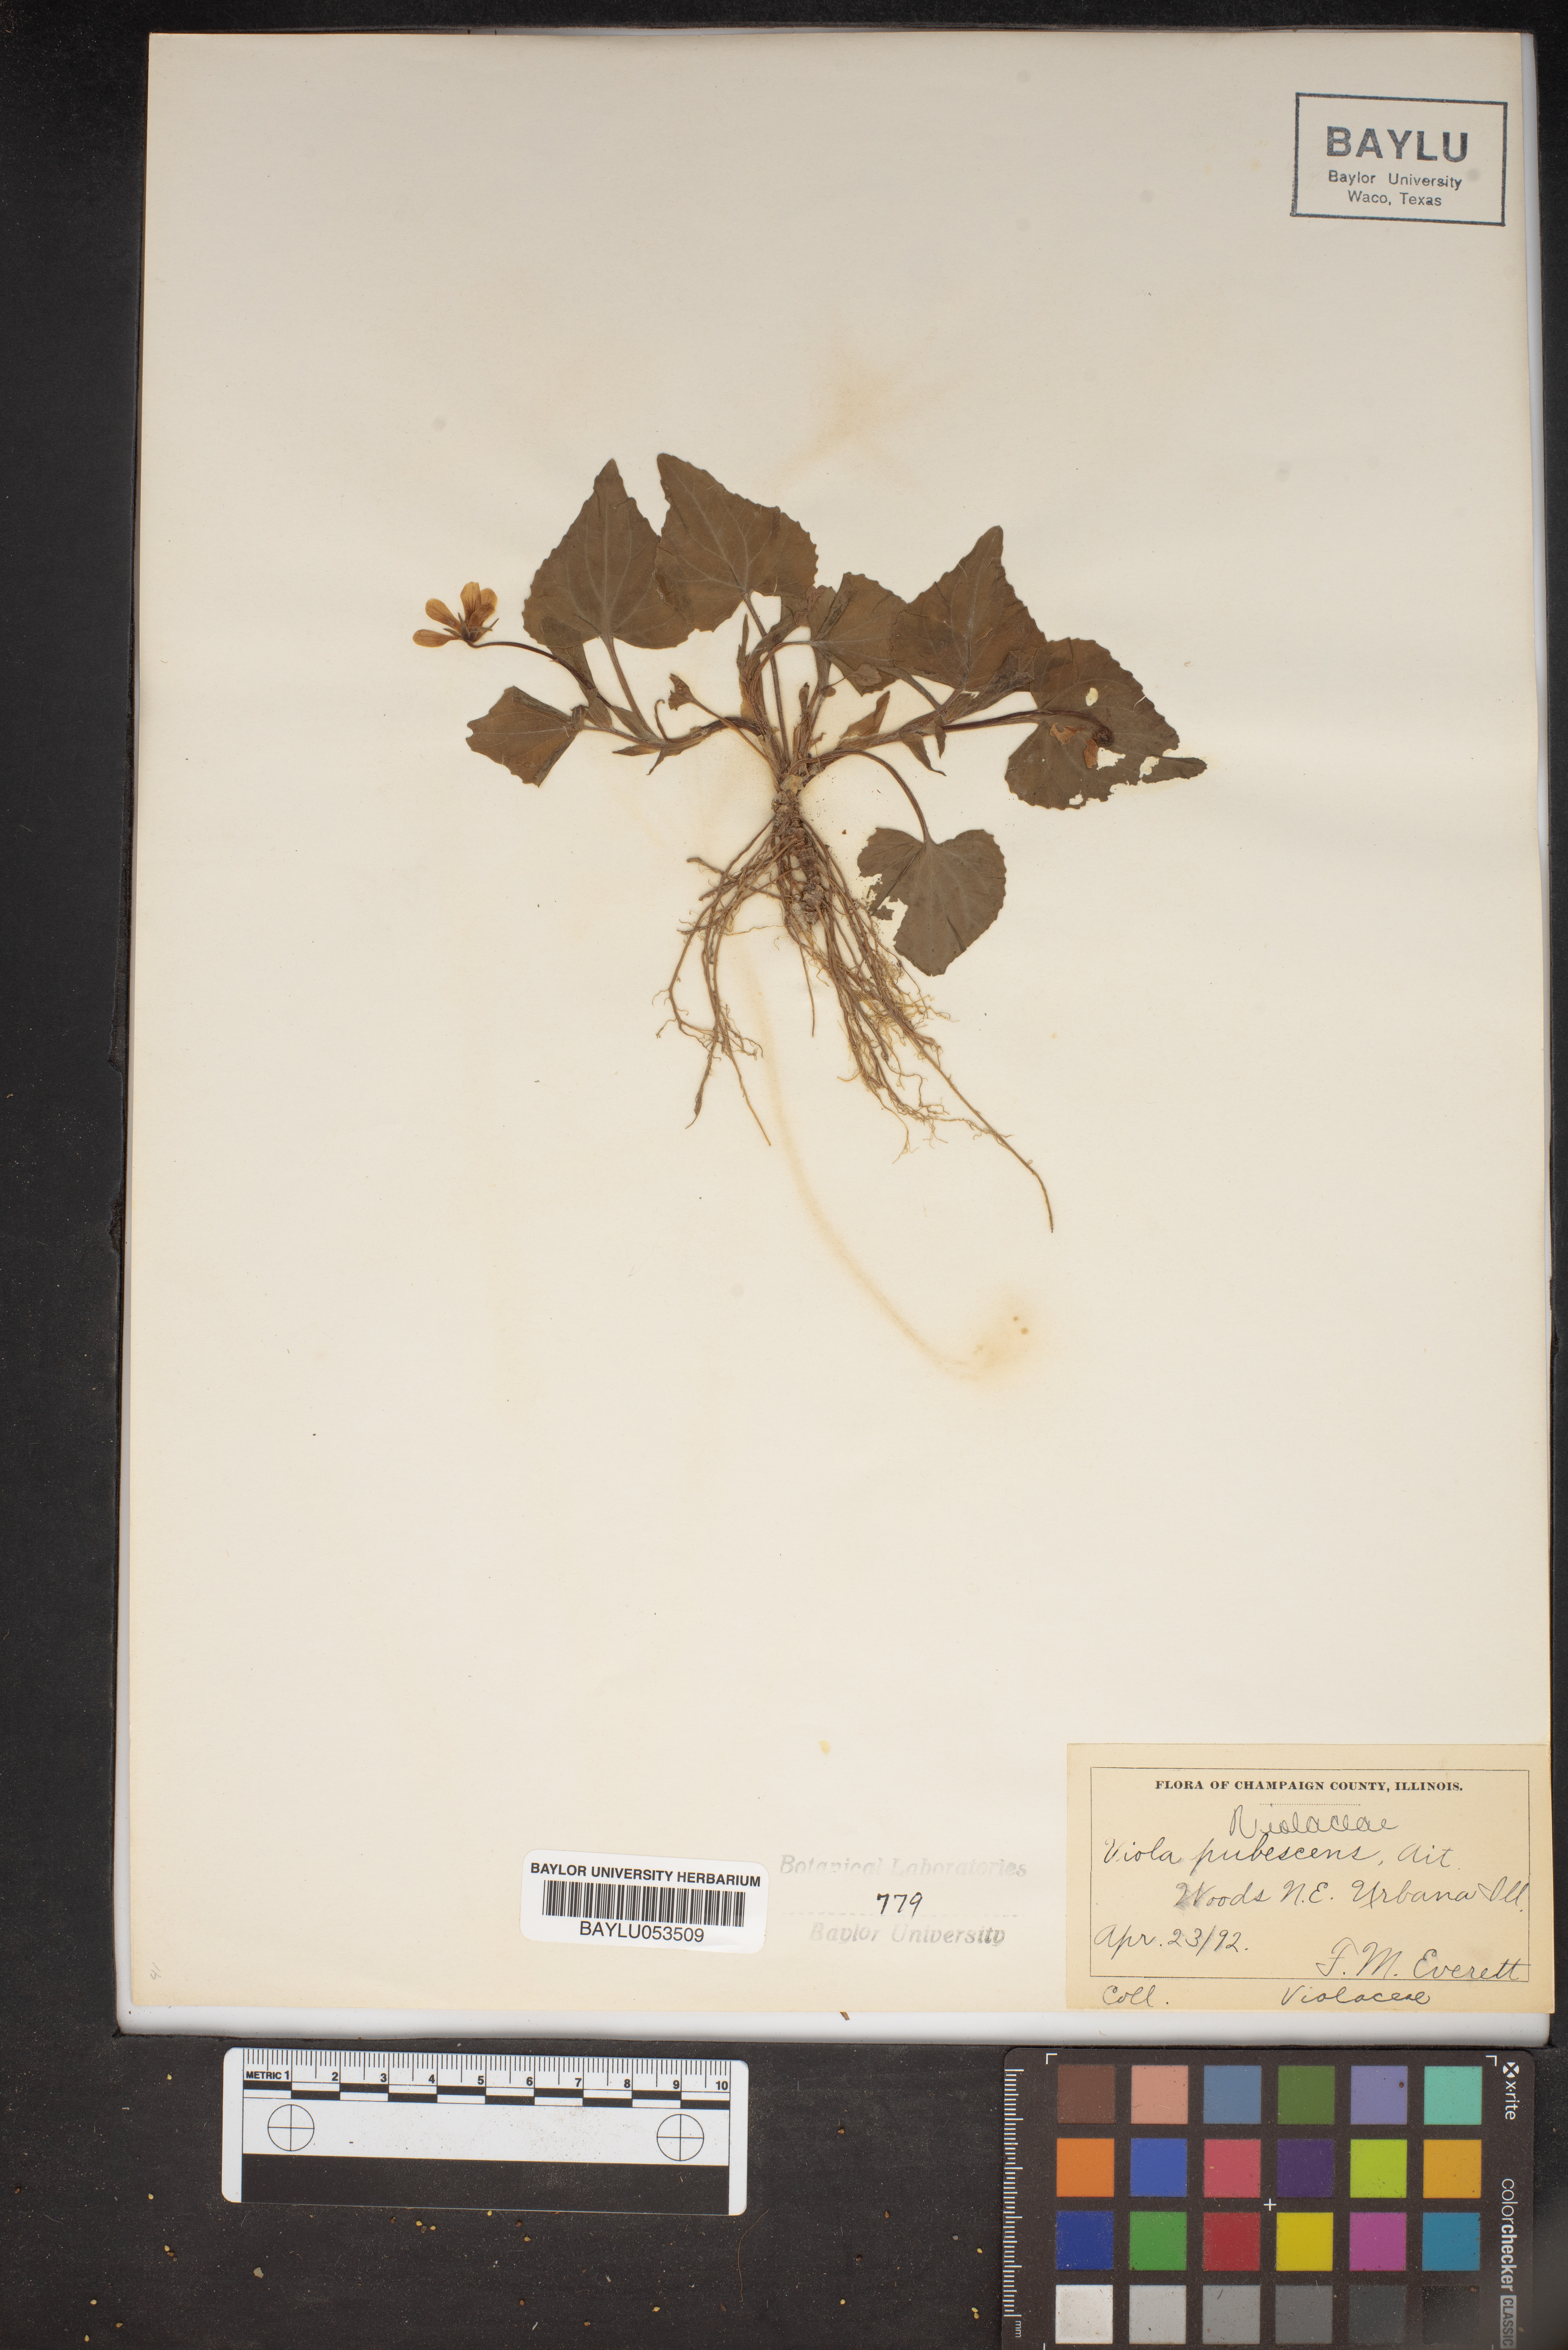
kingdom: Plantae
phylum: Tracheophyta
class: Magnoliopsida
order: Malpighiales
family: Violaceae
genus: Viola
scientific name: Viola pubescens
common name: Yellow forest violet
